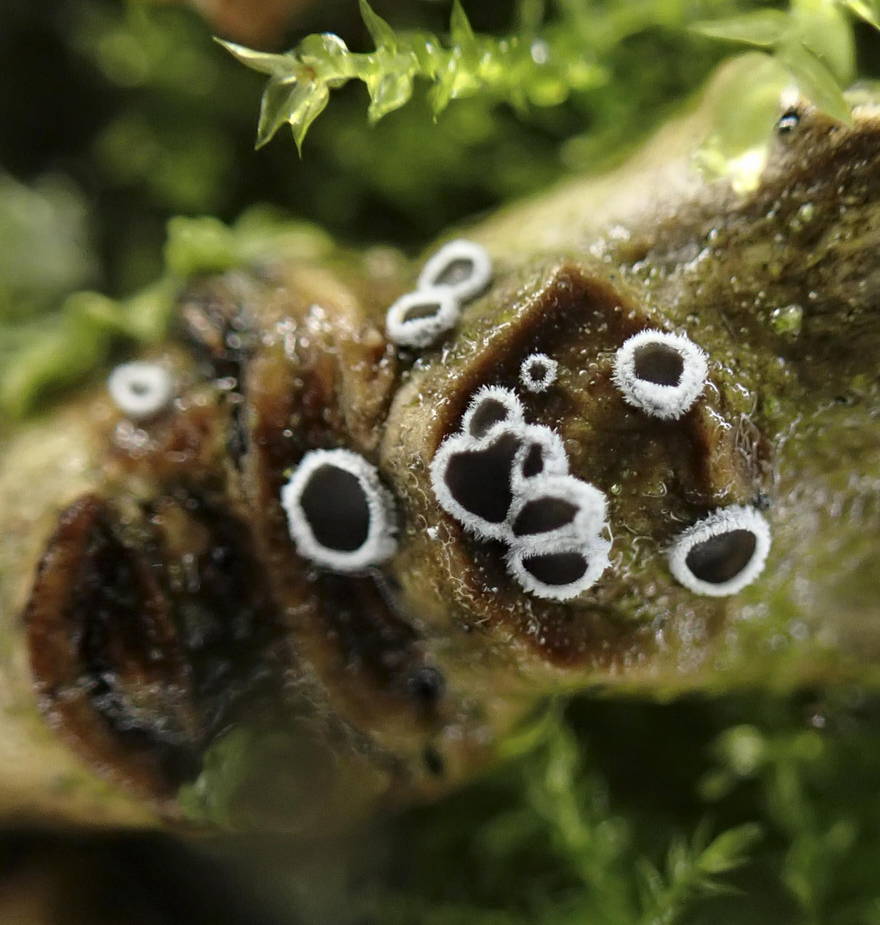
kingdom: Fungi
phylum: Basidiomycota
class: Agaricomycetes
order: Agaricales
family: Niaceae
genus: Lachnella
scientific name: Lachnella alboviolascens
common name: grå frynserede
